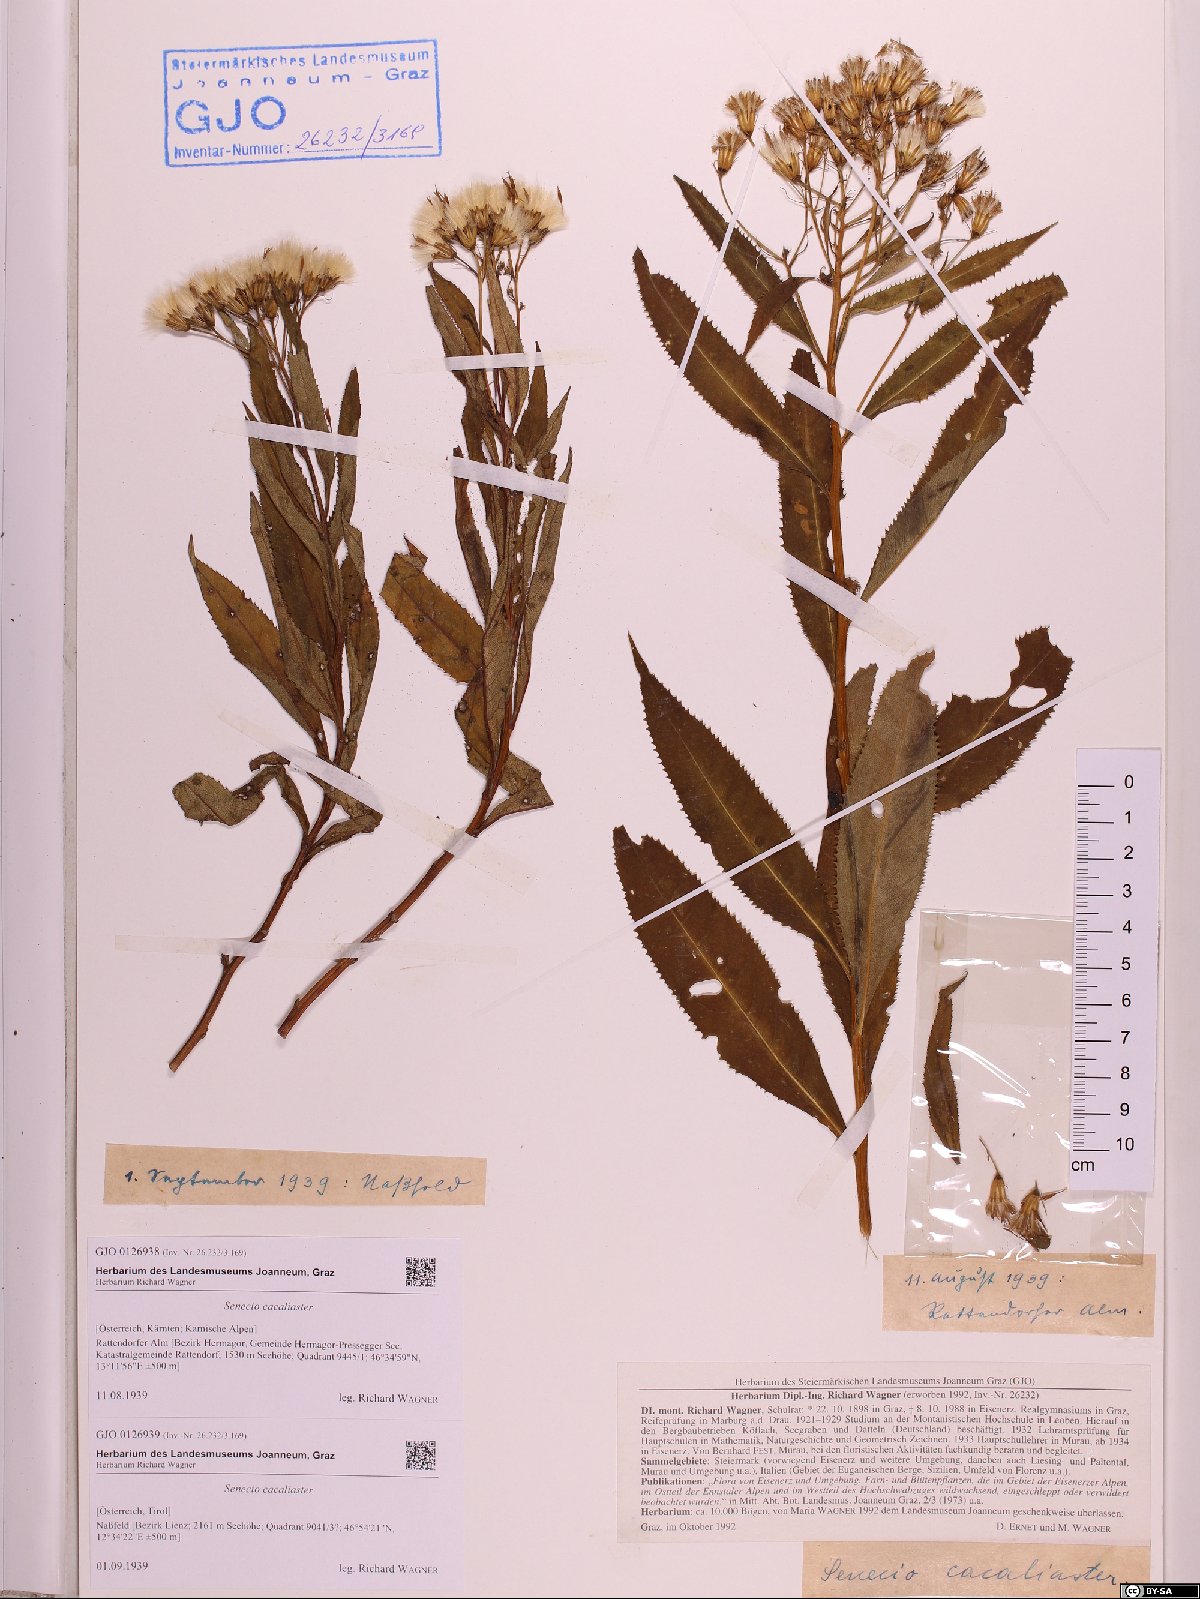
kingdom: Plantae
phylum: Tracheophyta
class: Magnoliopsida
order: Asterales
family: Asteraceae
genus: Senecio
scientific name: Senecio cacaliaster
